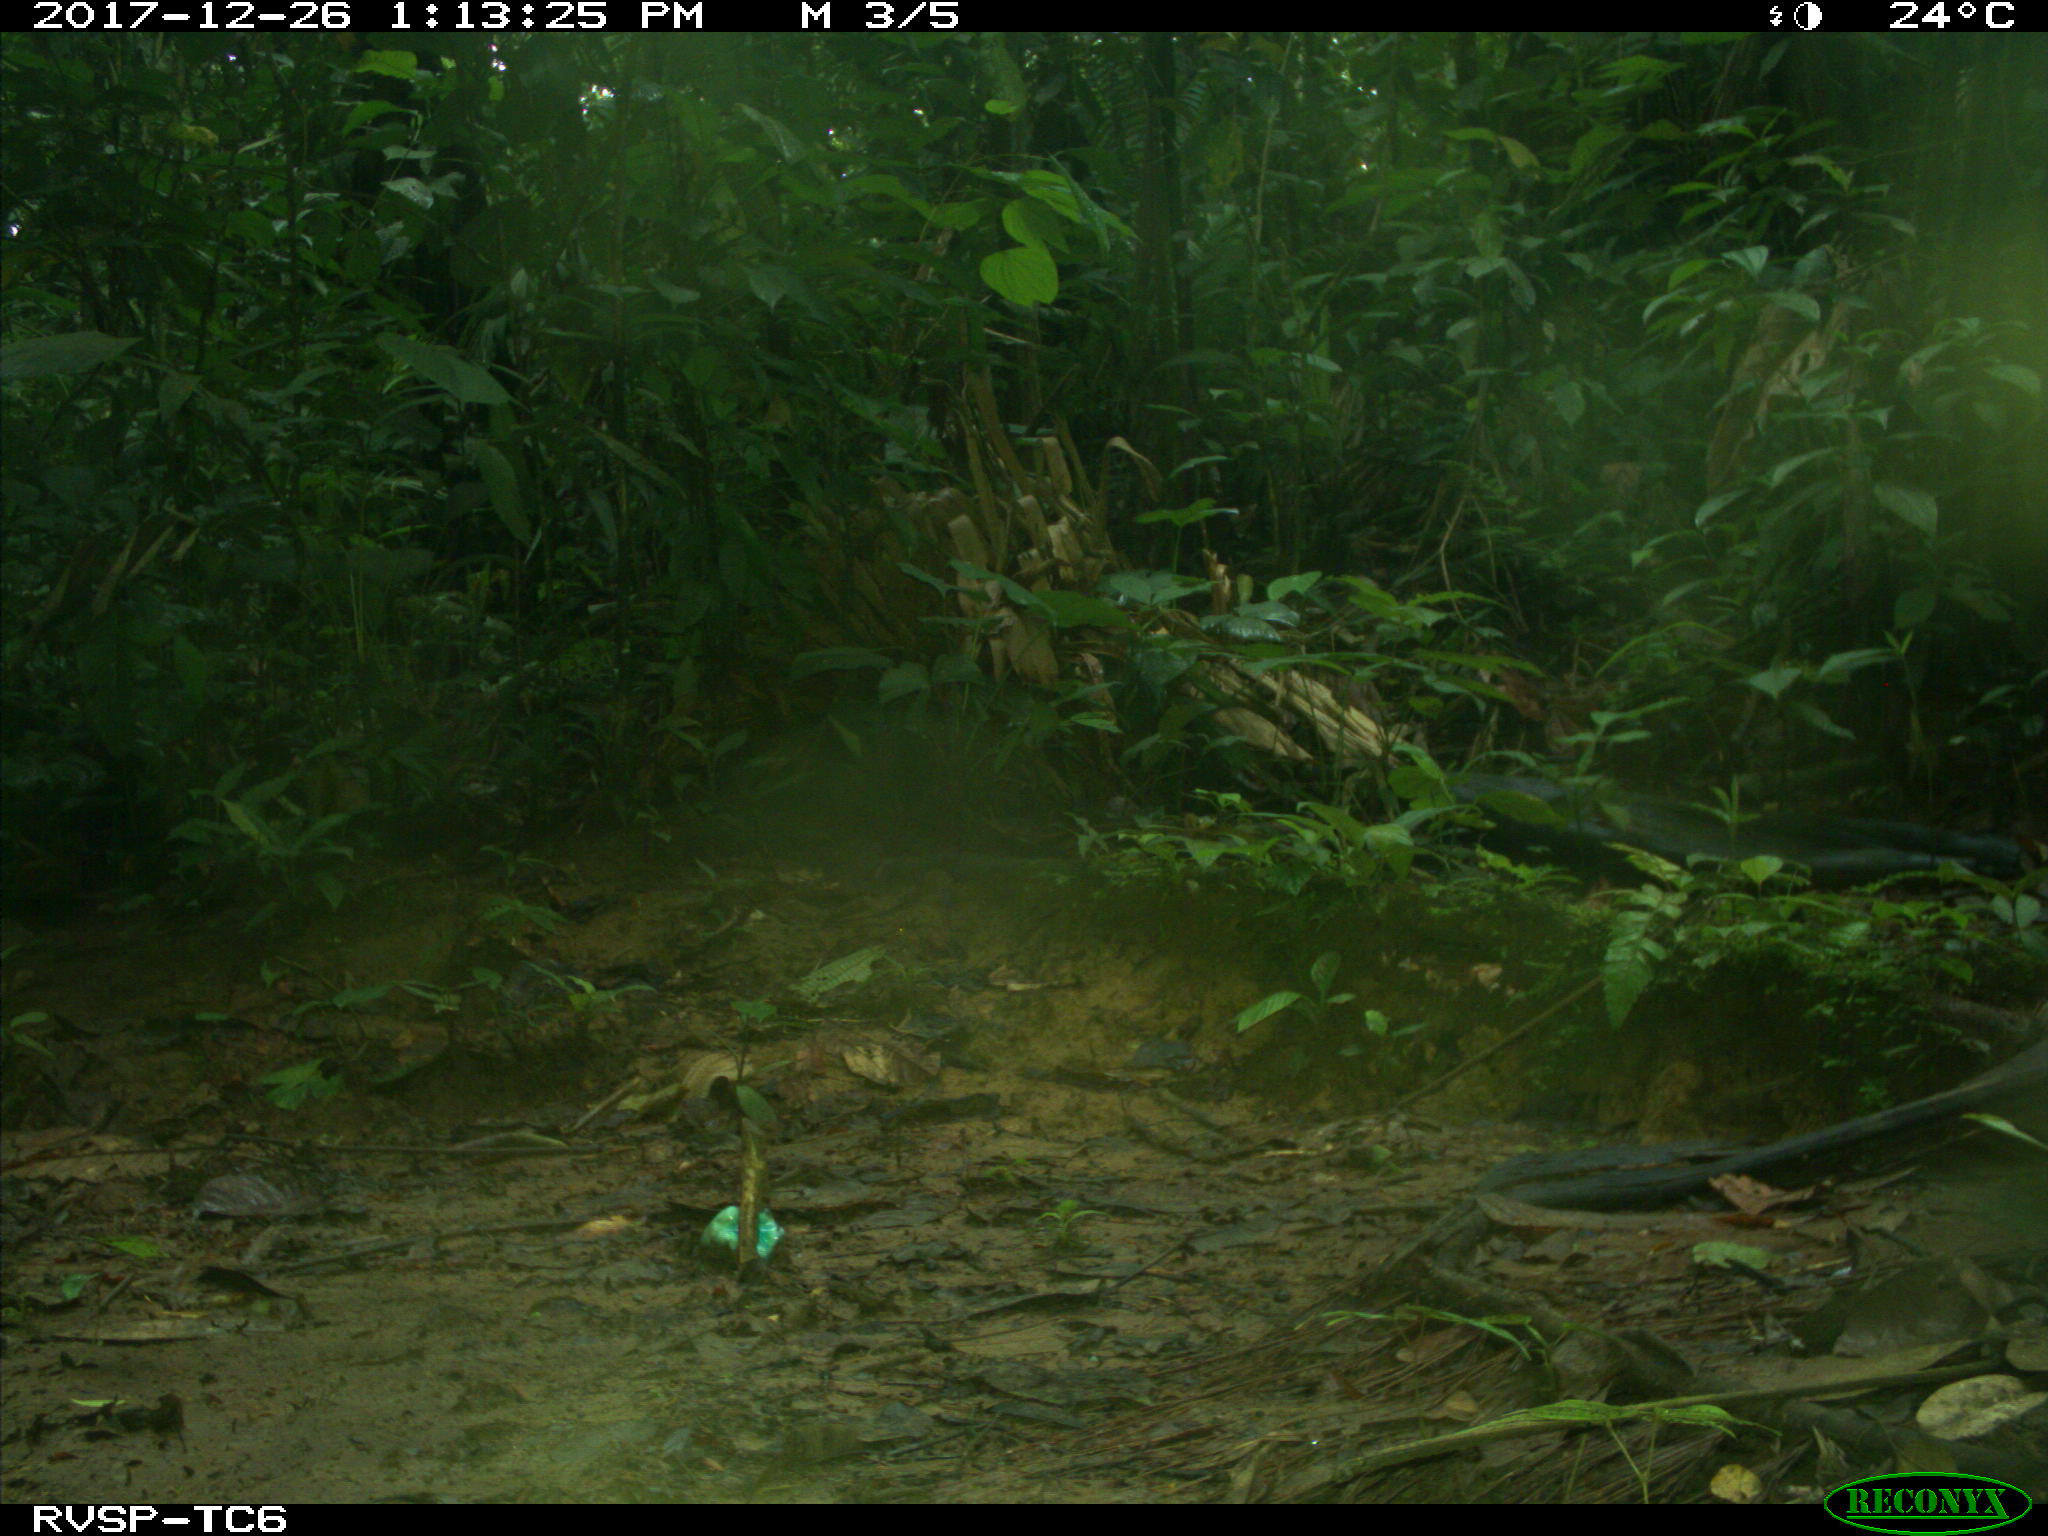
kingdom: Animalia
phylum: Chordata
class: Mammalia
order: Rodentia
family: Dasyproctidae
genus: Dasyprocta
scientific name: Dasyprocta punctata
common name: Central american agouti
